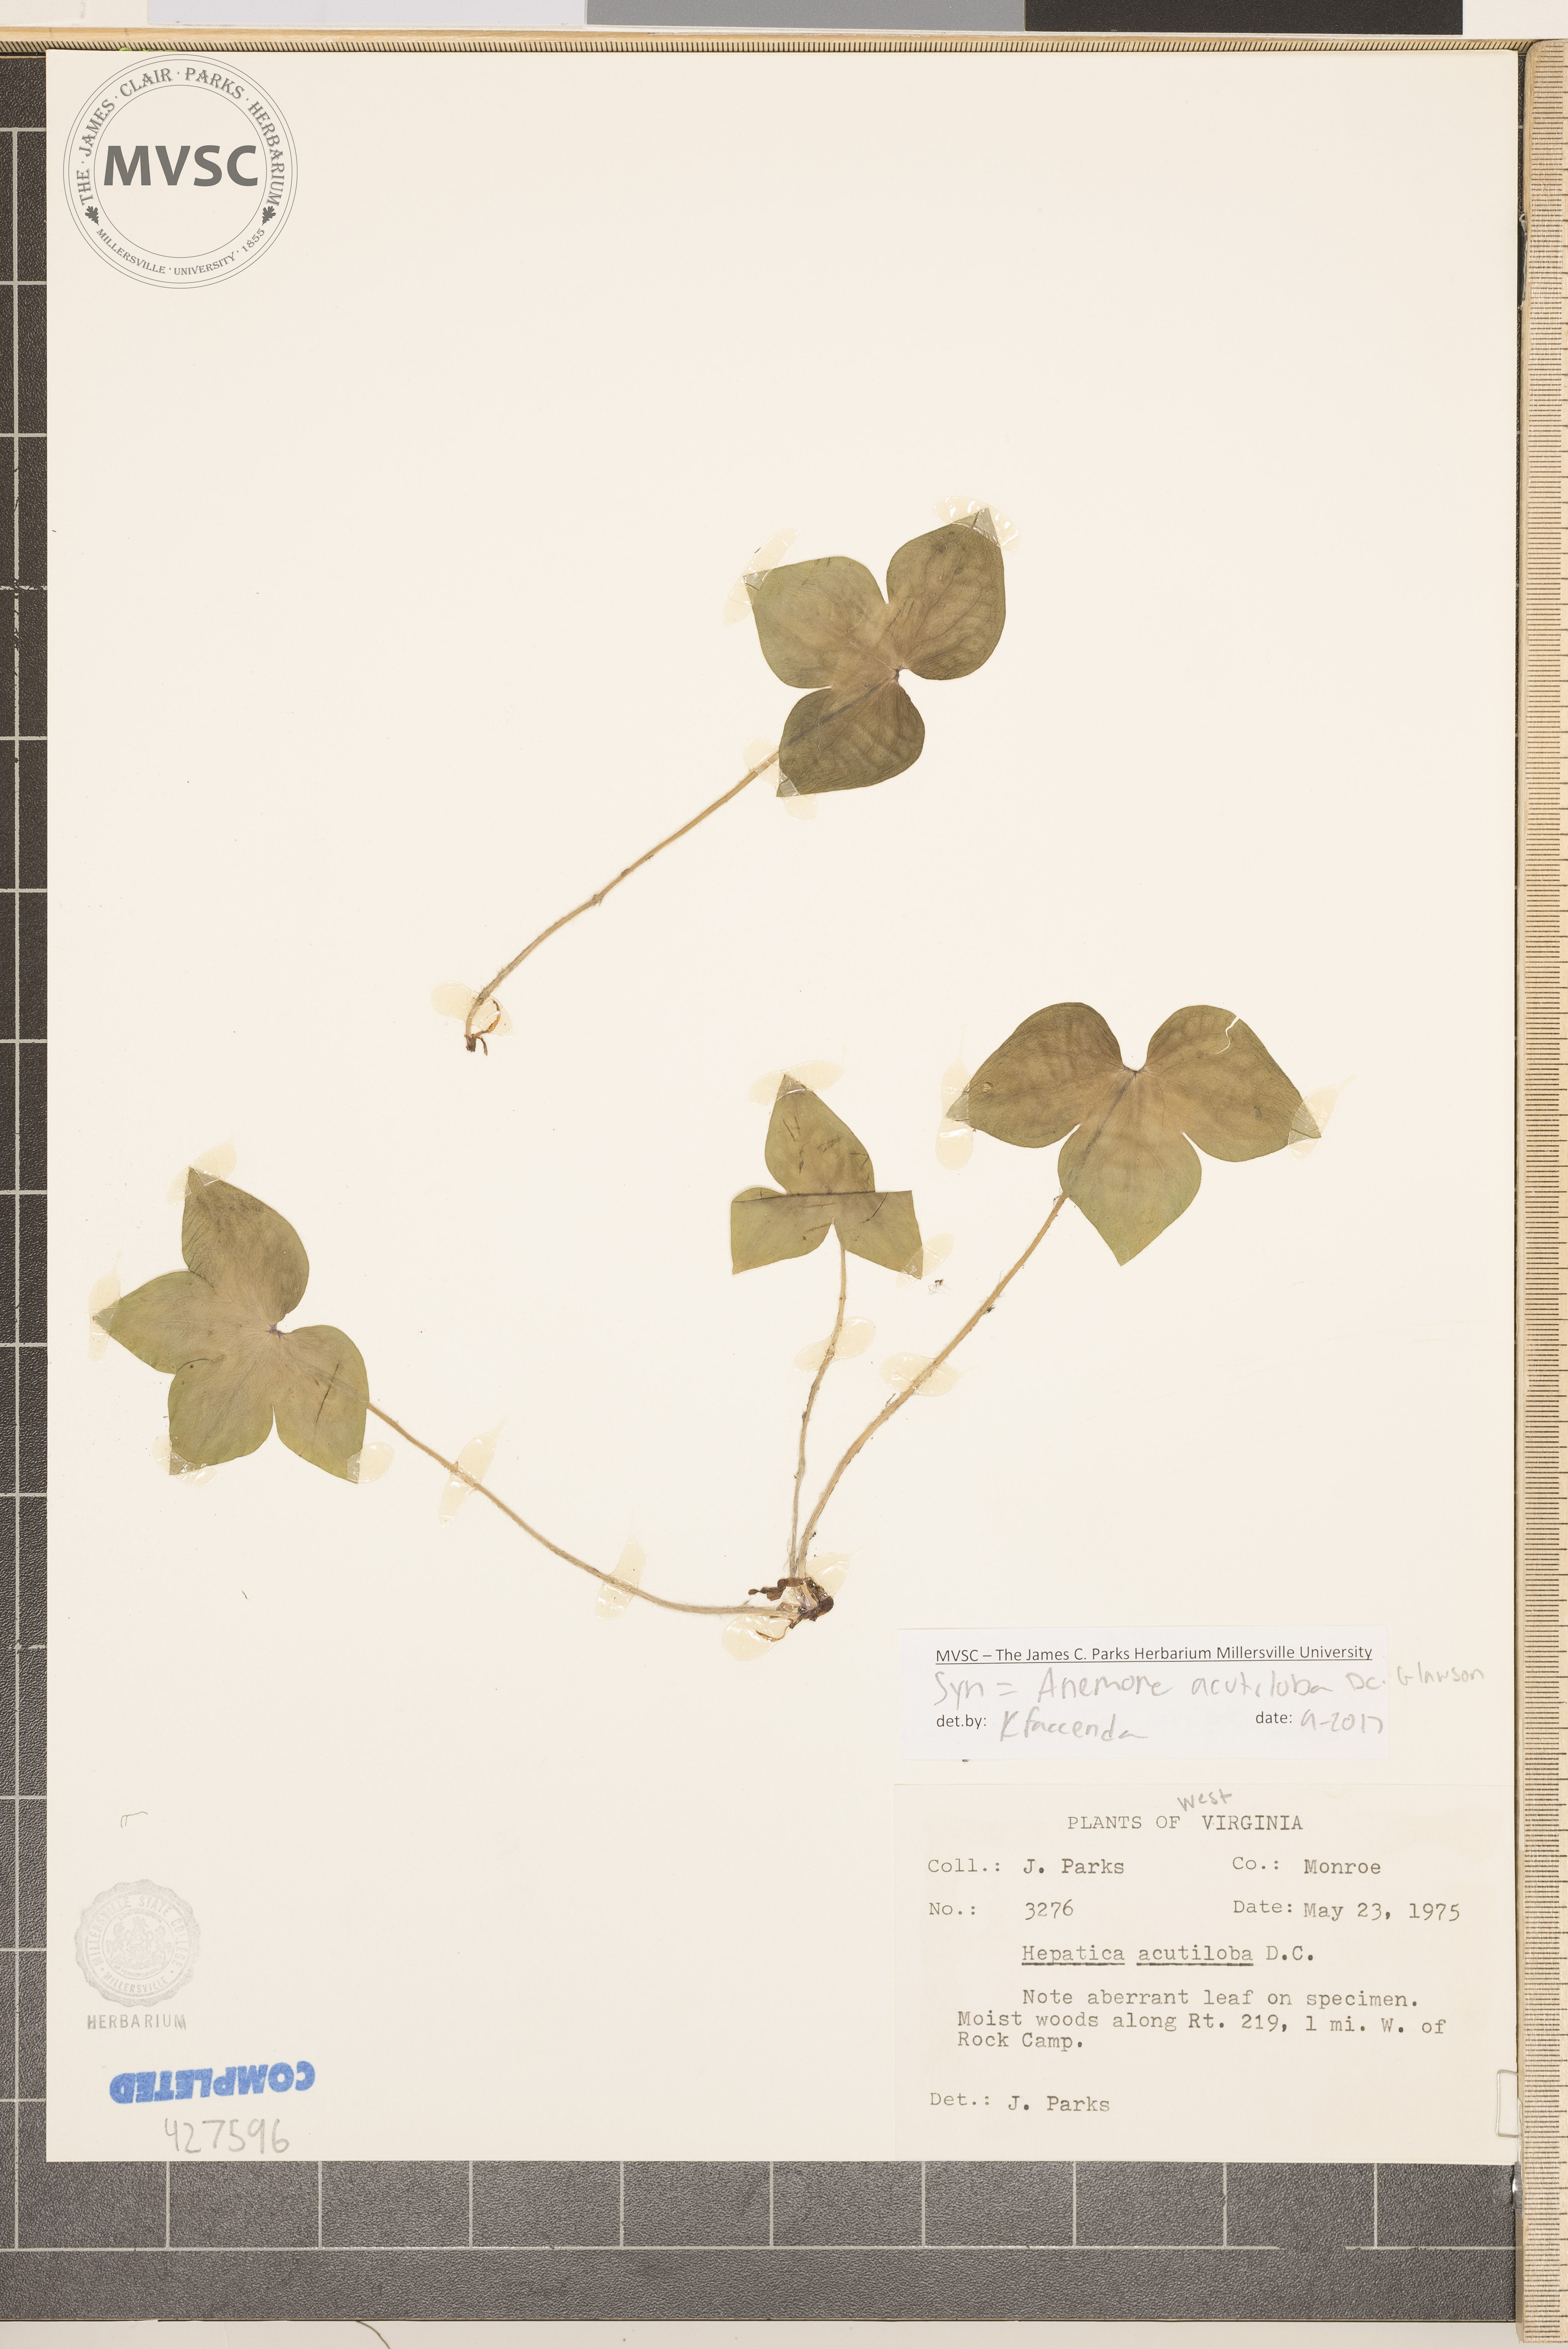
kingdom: Plantae
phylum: Tracheophyta
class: Magnoliopsida
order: Ranunculales
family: Ranunculaceae
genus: Hepatica
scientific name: Hepatica acutiloba
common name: Sharp-lobed hepatica
